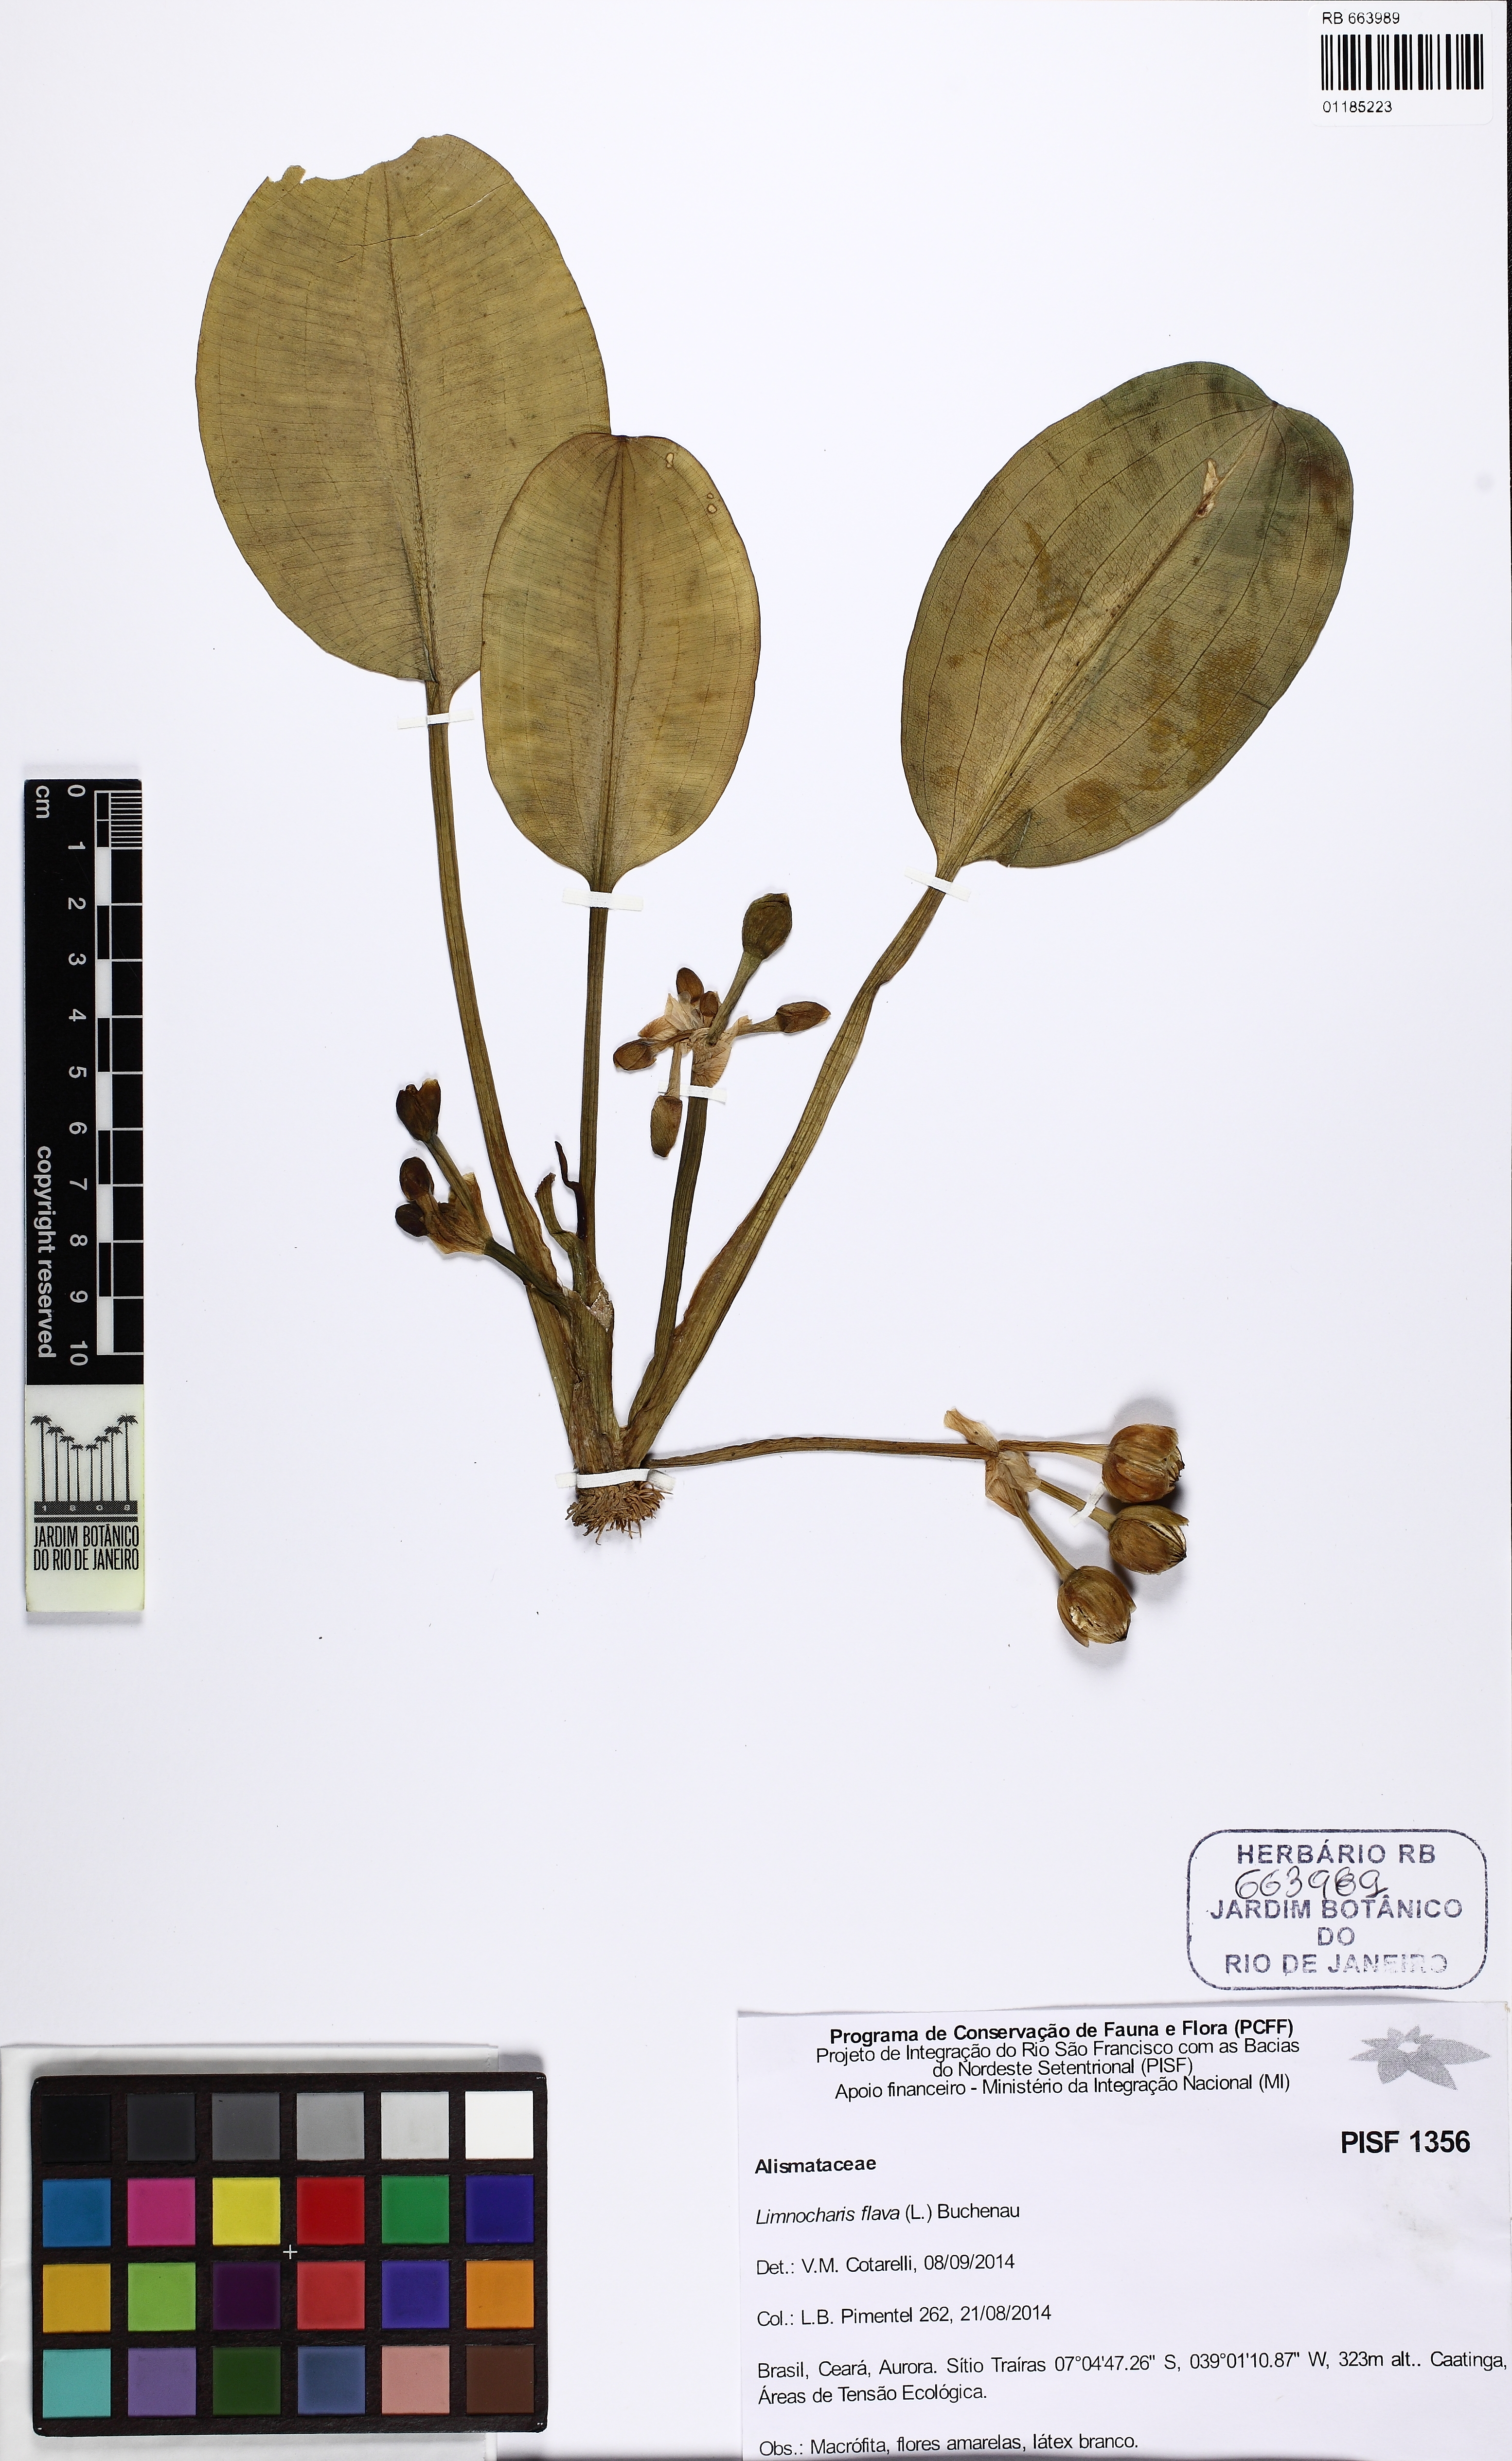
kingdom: Plantae
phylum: Tracheophyta
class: Liliopsida
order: Alismatales
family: Alismataceae
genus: Limnocharis
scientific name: Limnocharis flava
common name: Sawah-flower-rush
